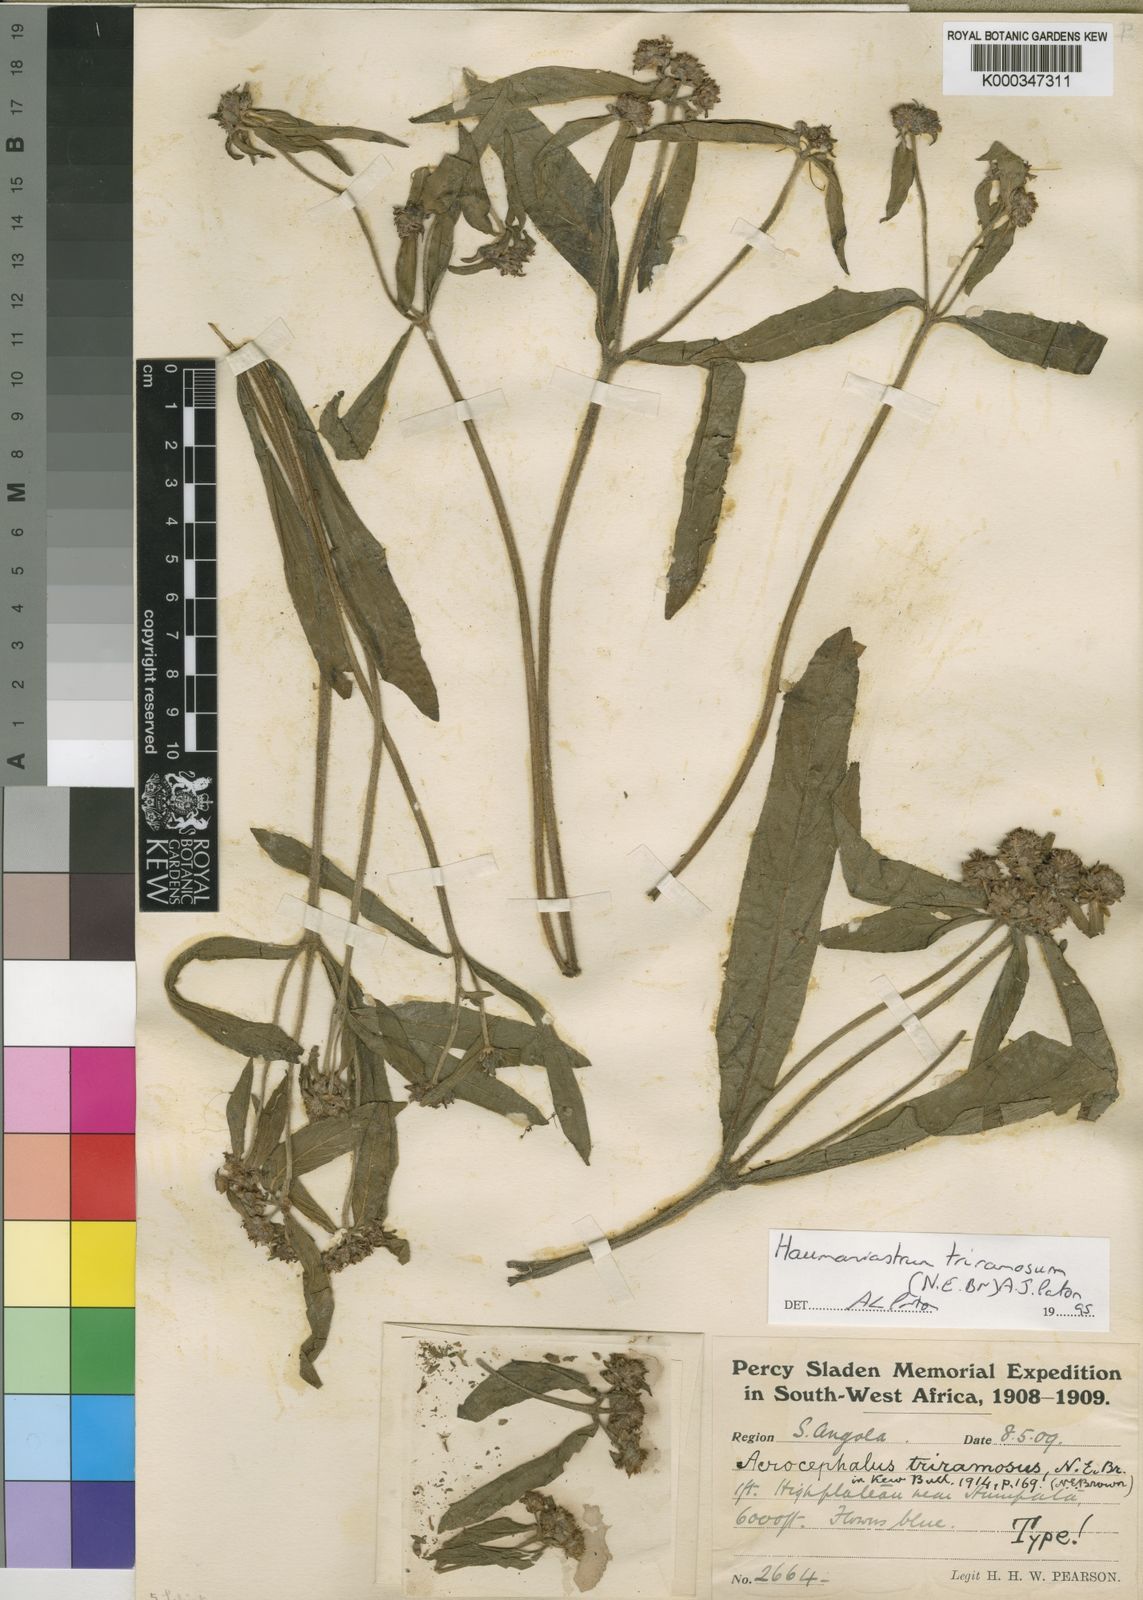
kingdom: Plantae
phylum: Tracheophyta
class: Magnoliopsida
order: Lamiales
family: Lamiaceae
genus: Haumaniastrum
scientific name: Haumaniastrum triramosum
